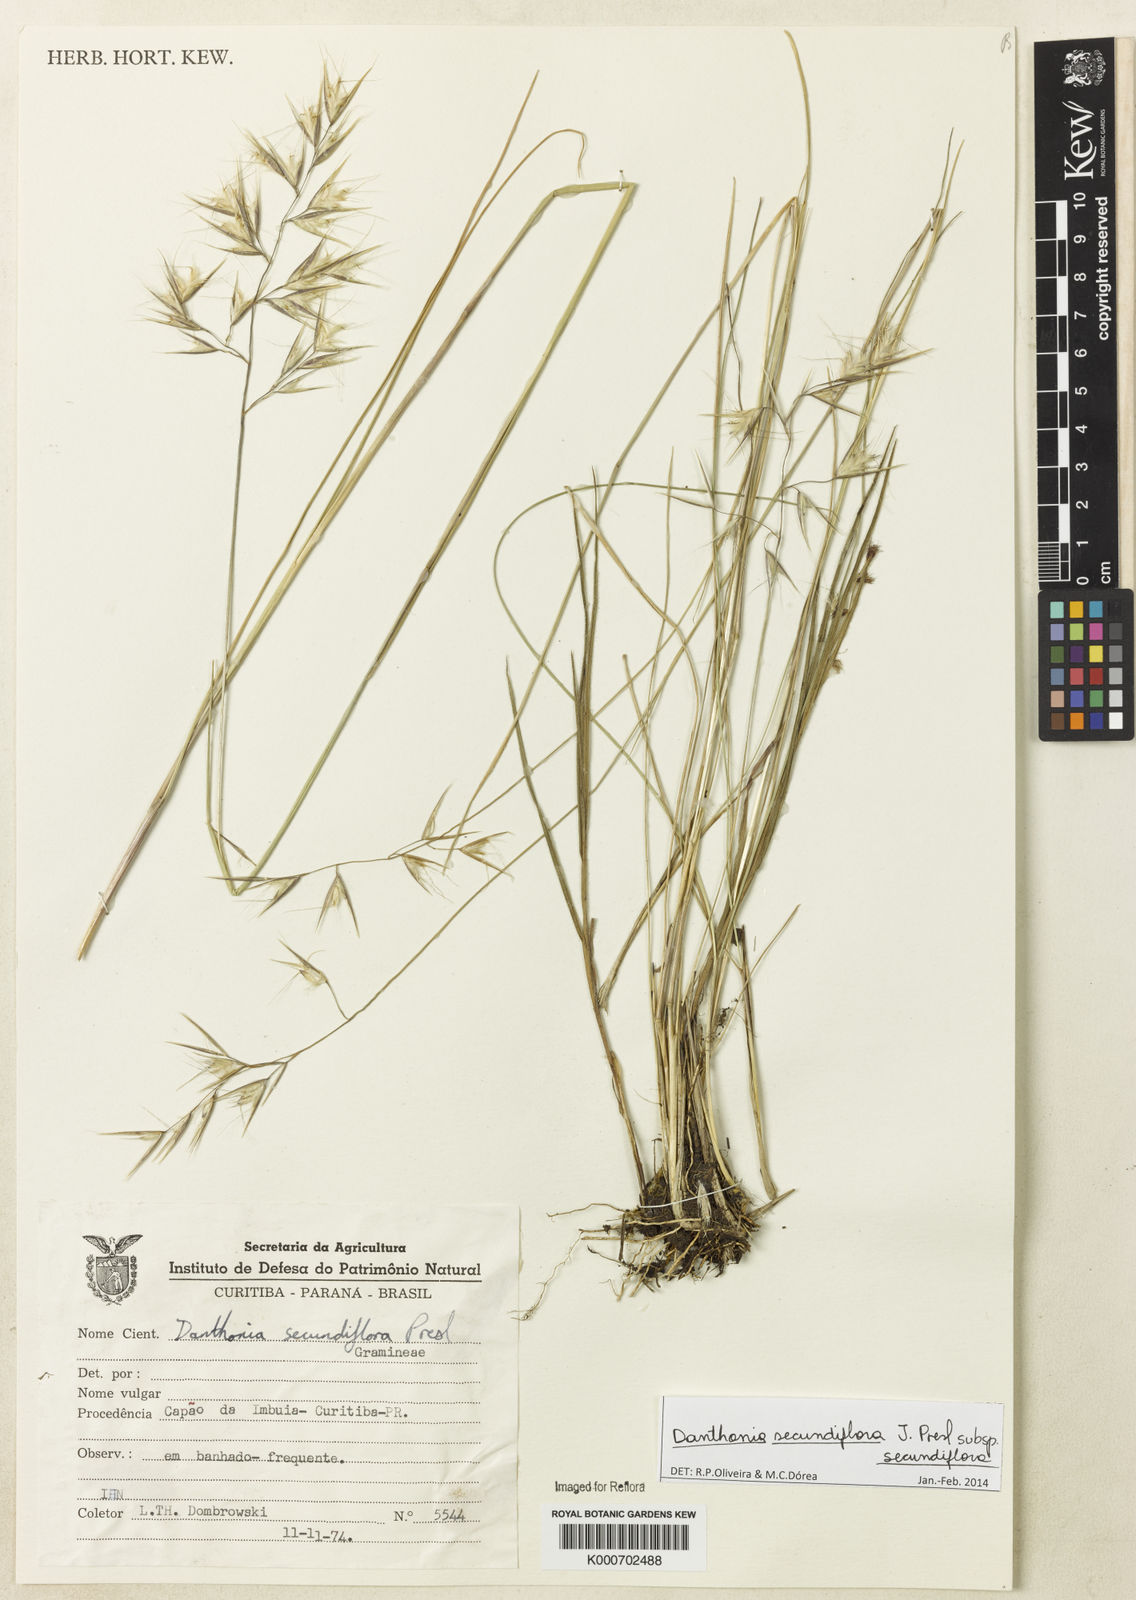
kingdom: Plantae
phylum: Tracheophyta
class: Liliopsida
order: Poales
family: Poaceae
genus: Danthonia
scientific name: Danthonia secundiflora
